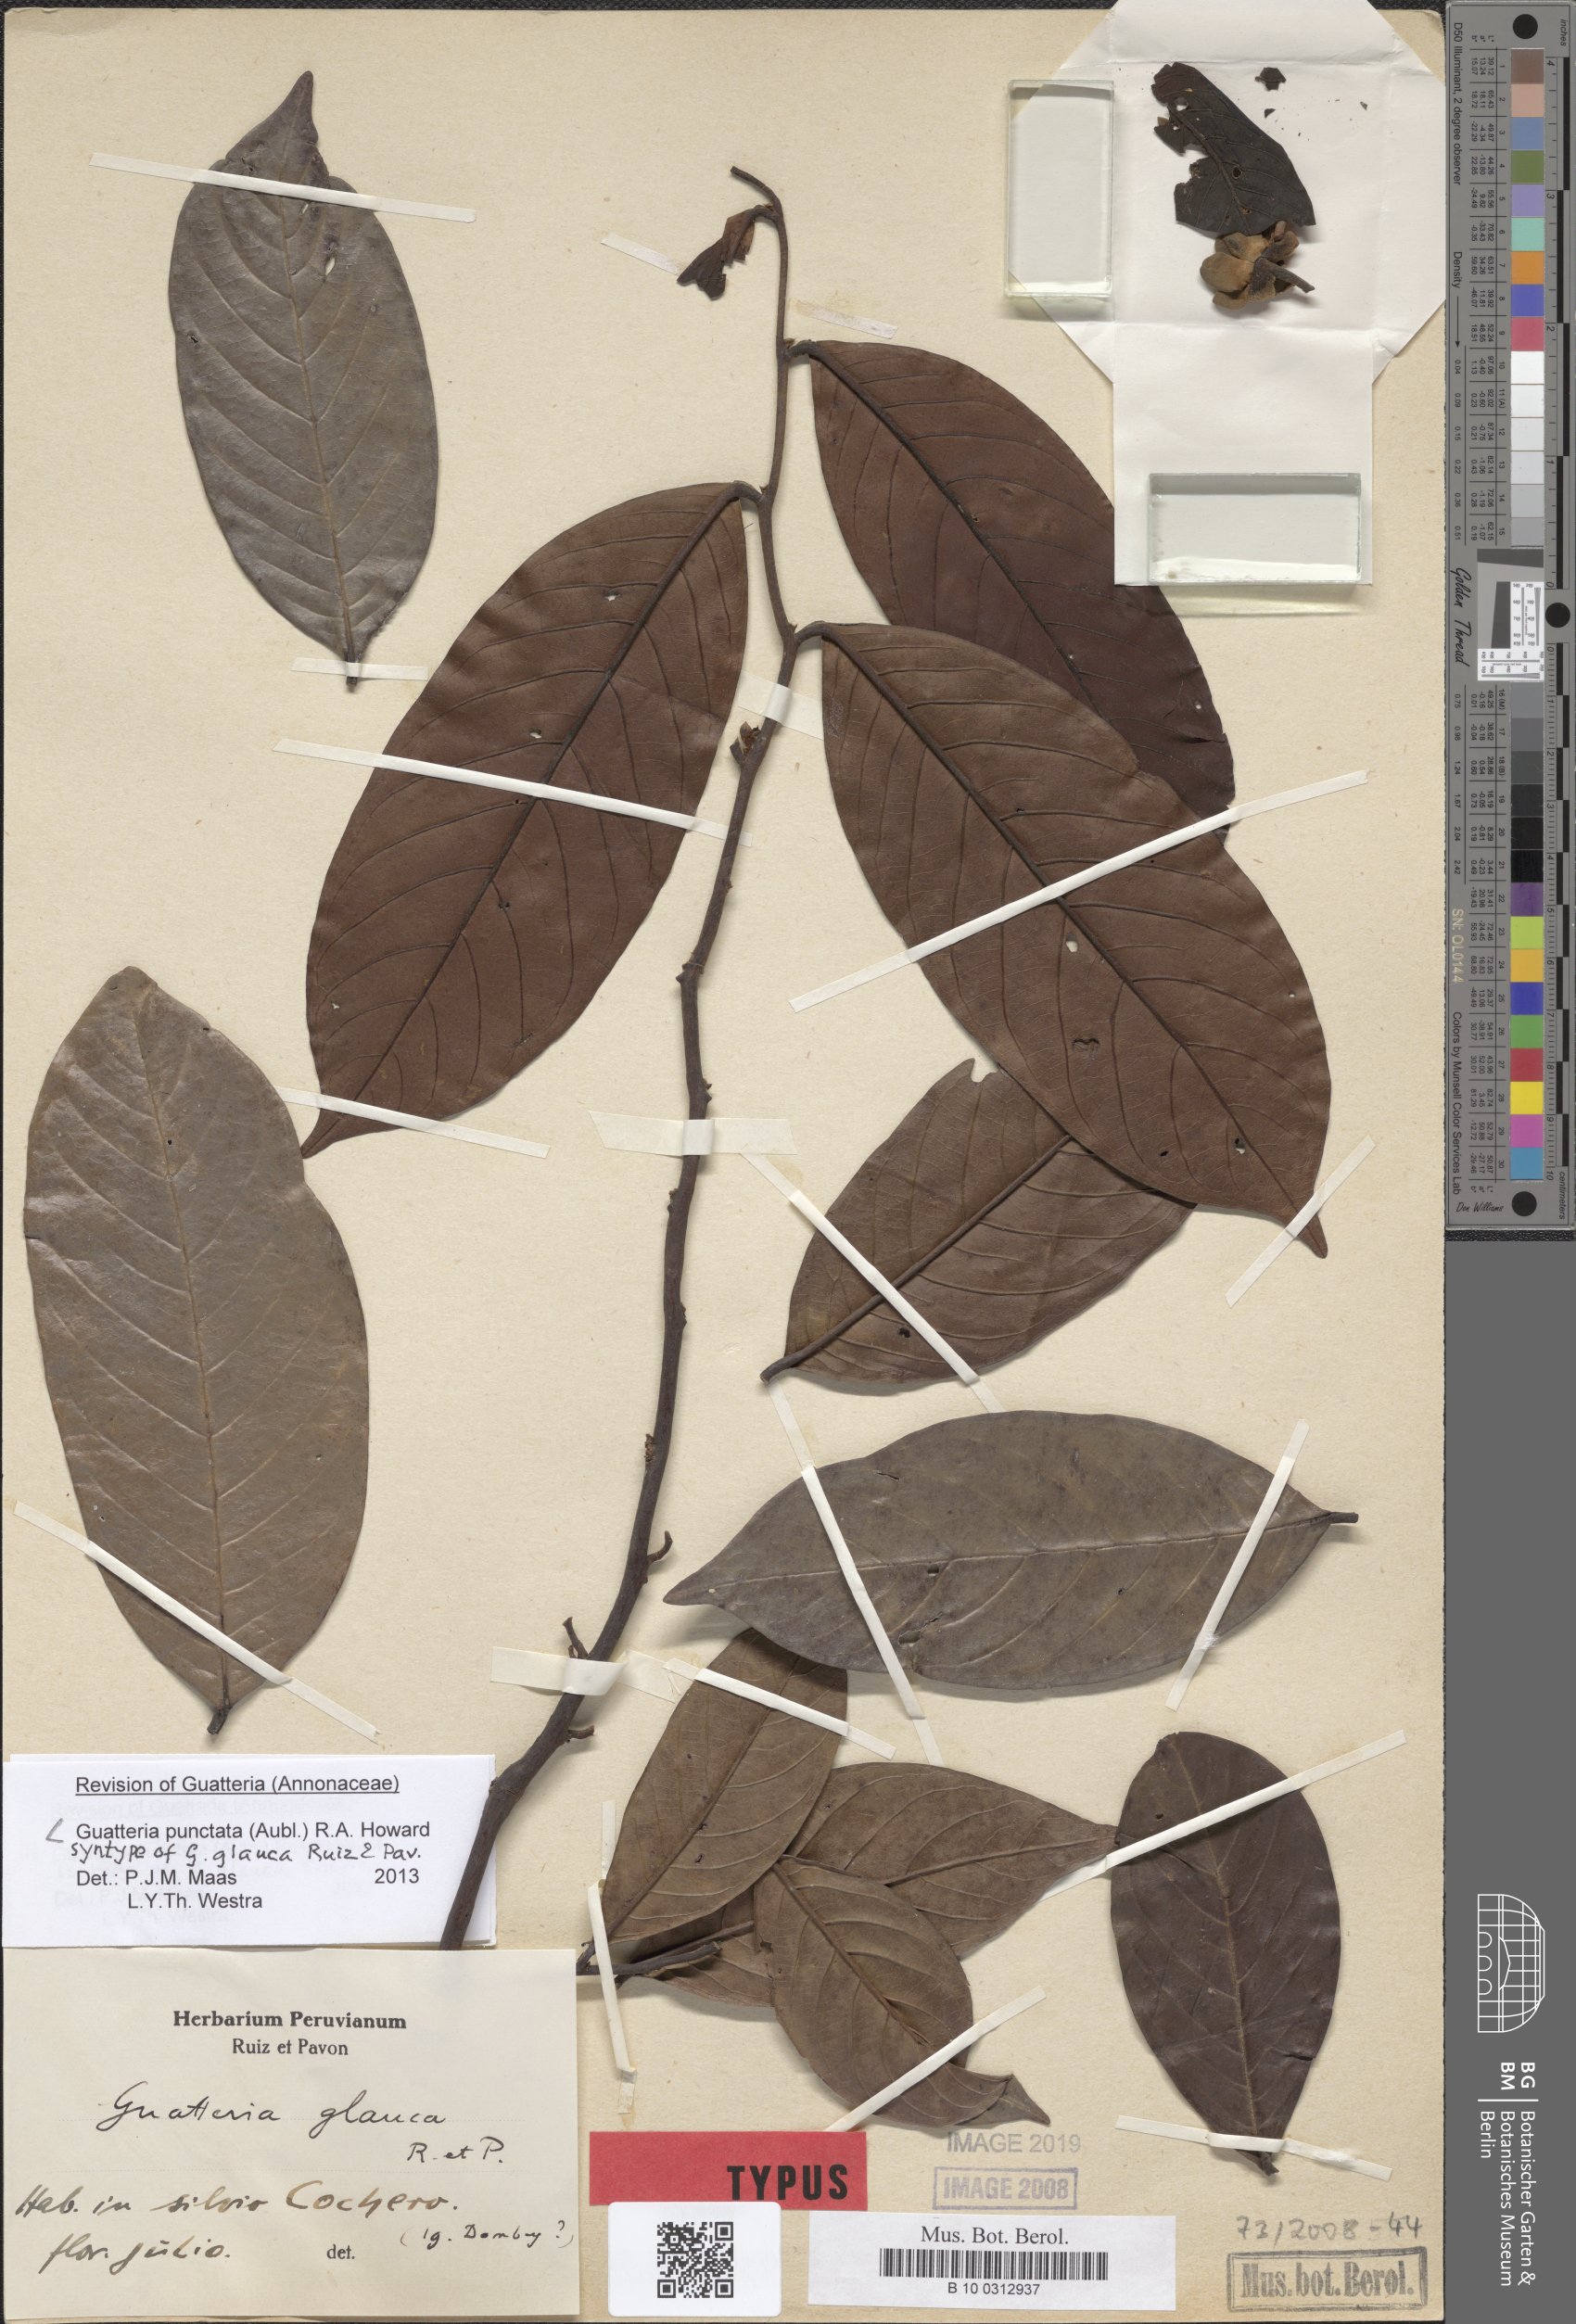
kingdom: Plantae
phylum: Tracheophyta
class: Magnoliopsida
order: Magnoliales
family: Annonaceae
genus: Guatteria
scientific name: Guatteria glauca
